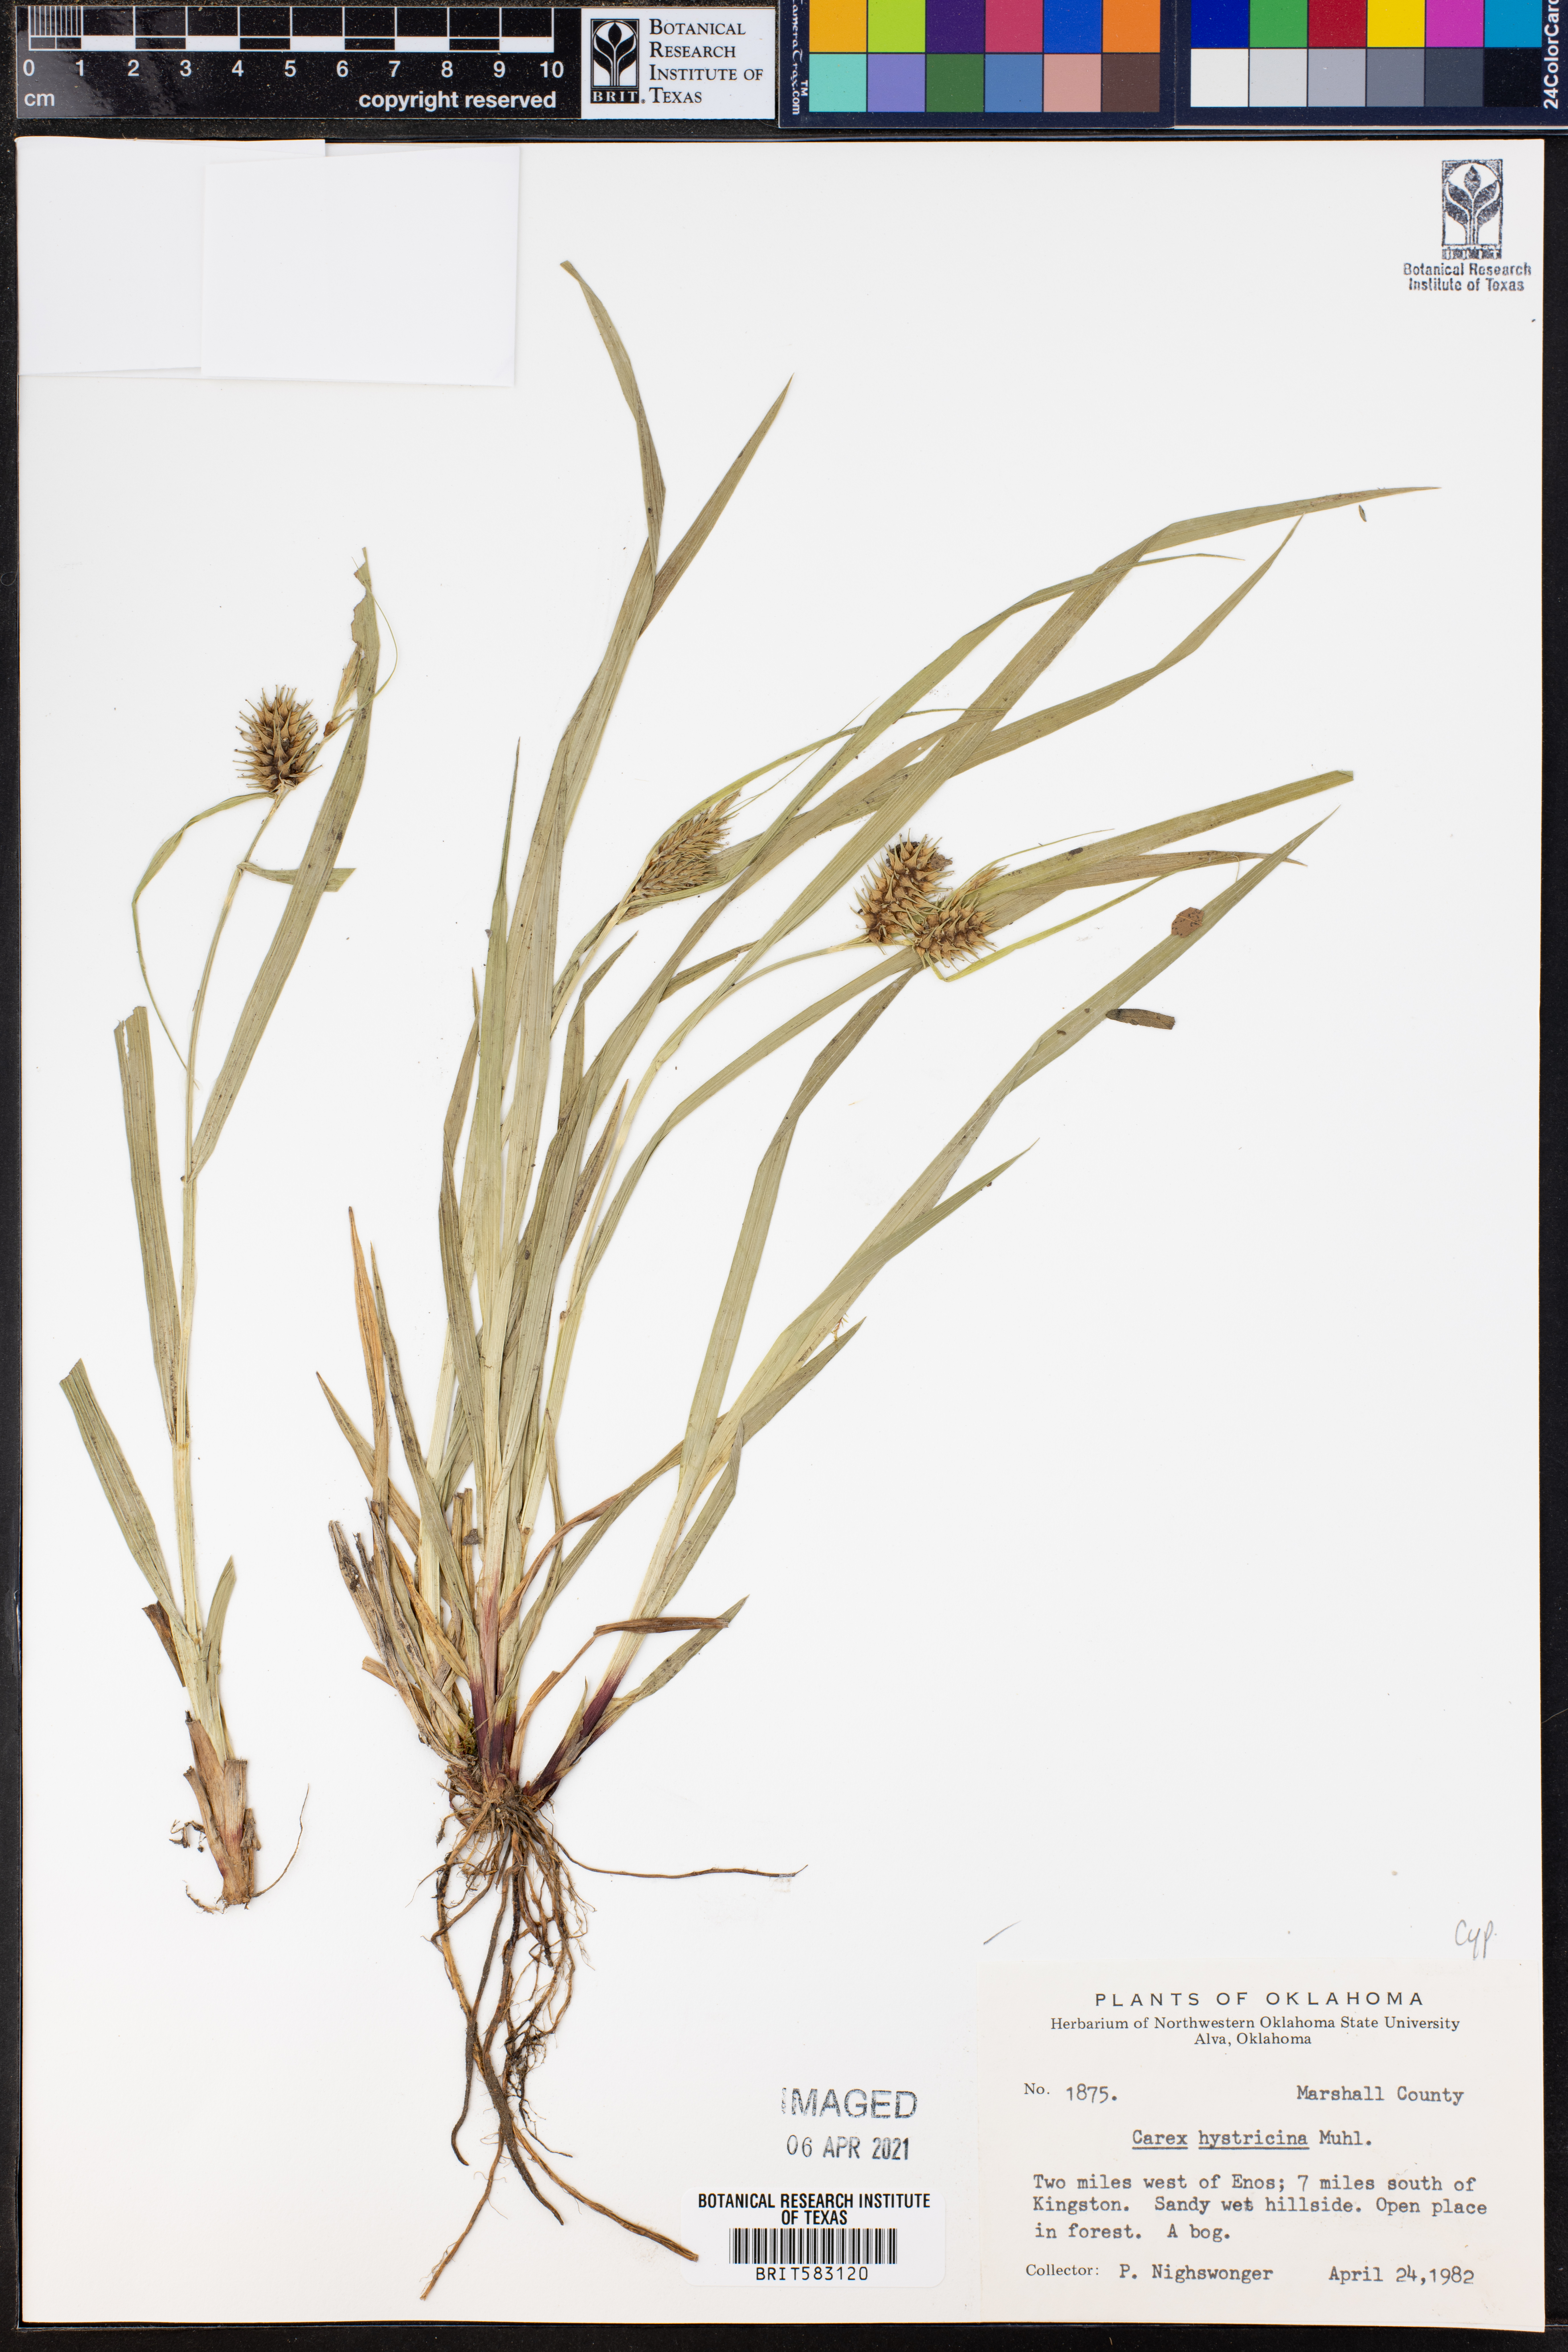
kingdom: Plantae
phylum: Tracheophyta
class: Liliopsida
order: Poales
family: Cyperaceae
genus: Carex
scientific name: Carex hystericina
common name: Bottlebrush sedge
